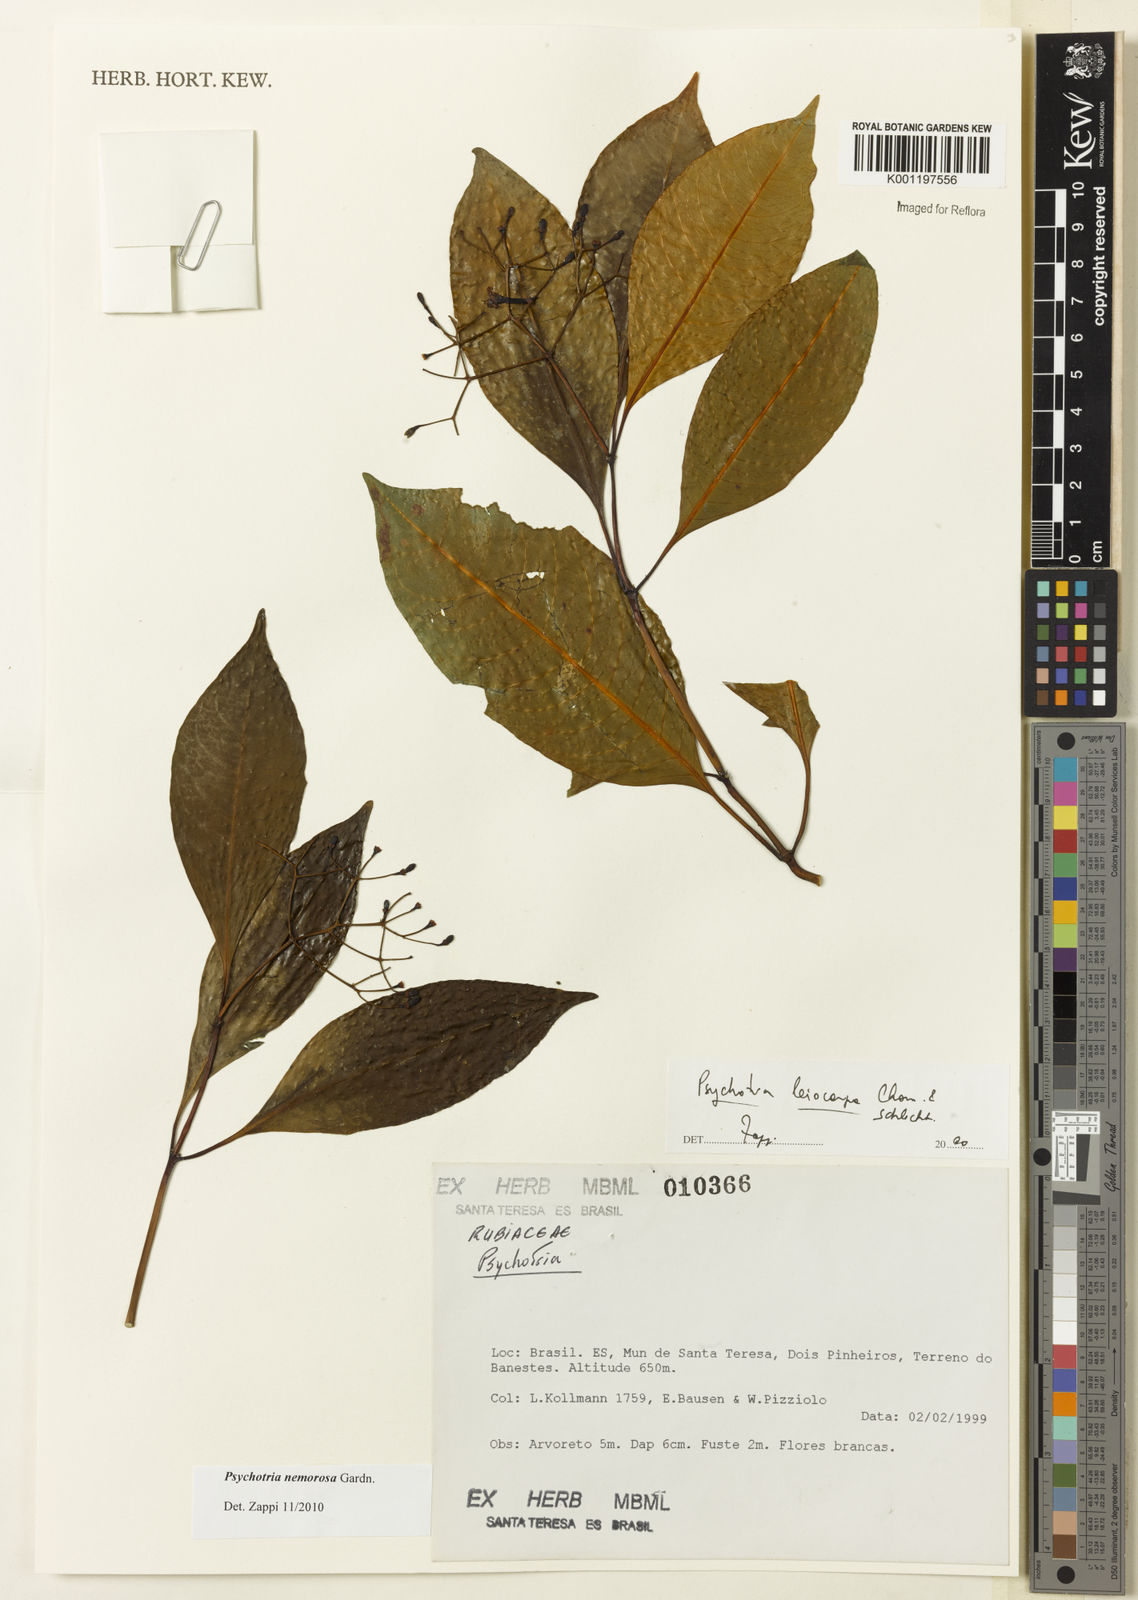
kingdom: Plantae
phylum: Tracheophyta
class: Magnoliopsida
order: Gentianales
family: Rubiaceae
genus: Psychotria
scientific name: Psychotria nemorosa
